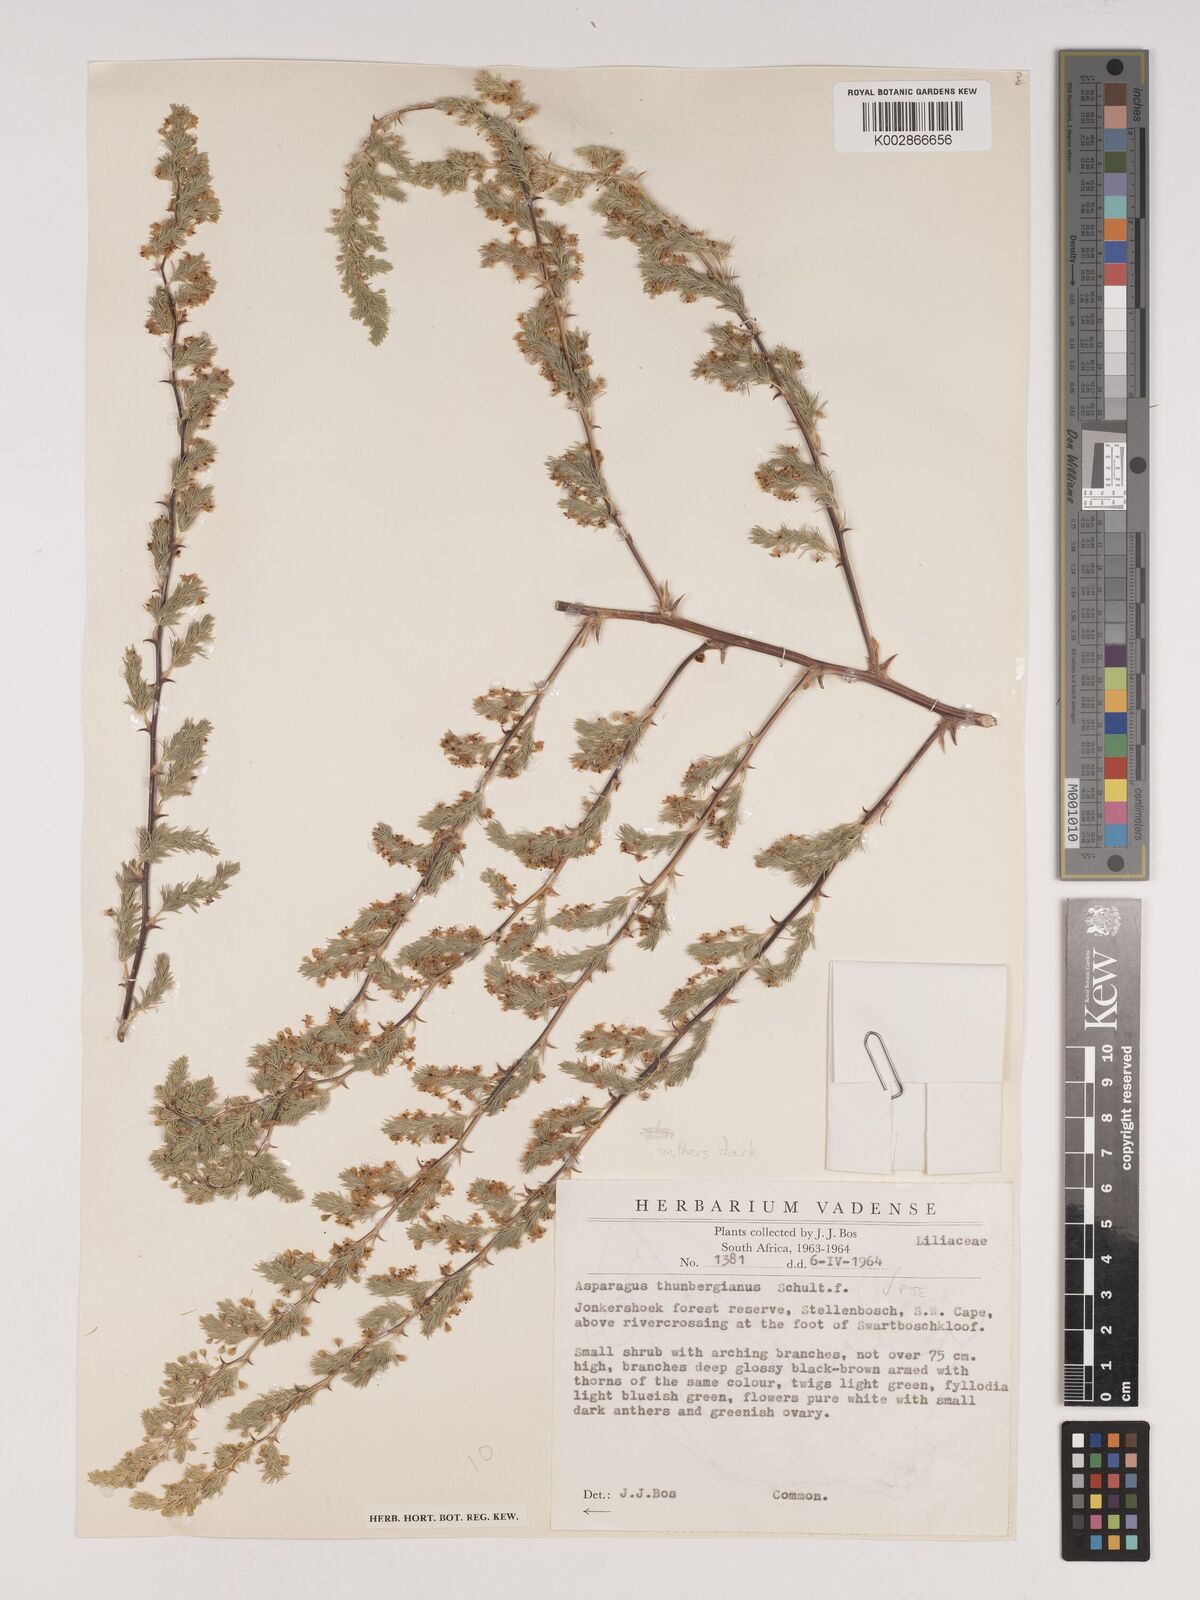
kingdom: Plantae
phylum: Tracheophyta
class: Liliopsida
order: Asparagales
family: Asparagaceae
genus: Asparagus
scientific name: Asparagus rubicundus
